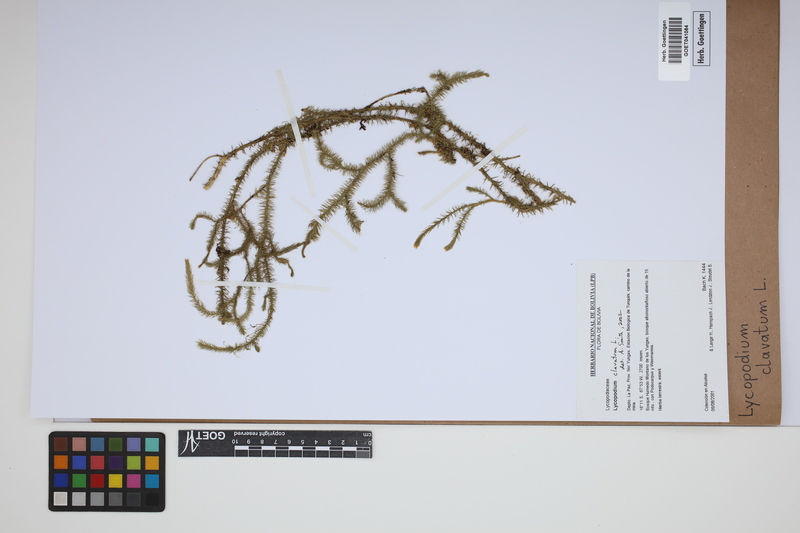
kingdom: Plantae
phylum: Tracheophyta
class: Lycopodiopsida
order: Lycopodiales
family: Lycopodiaceae
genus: Lycopodium
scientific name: Lycopodium clavatum
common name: Stag's-horn clubmoss
